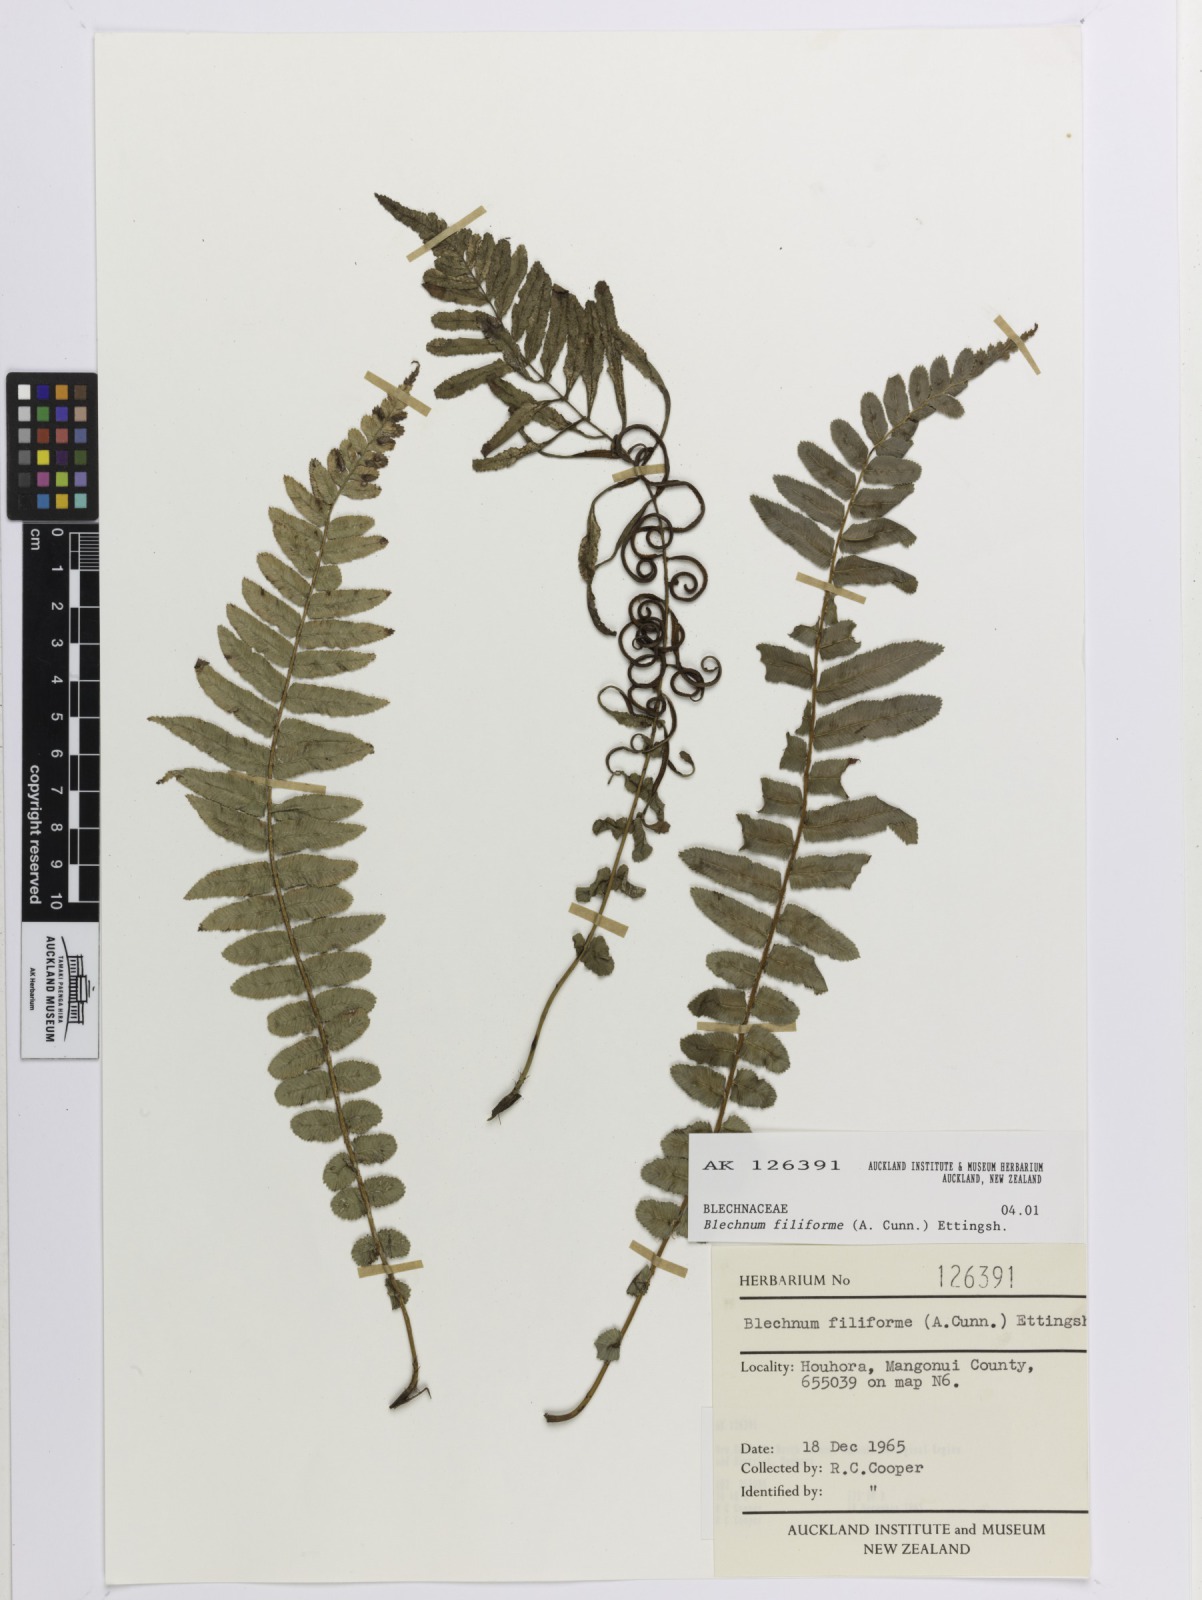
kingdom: Plantae
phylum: Tracheophyta
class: Polypodiopsida
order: Polypodiales
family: Blechnaceae
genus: Icarus
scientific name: Icarus filiformis
